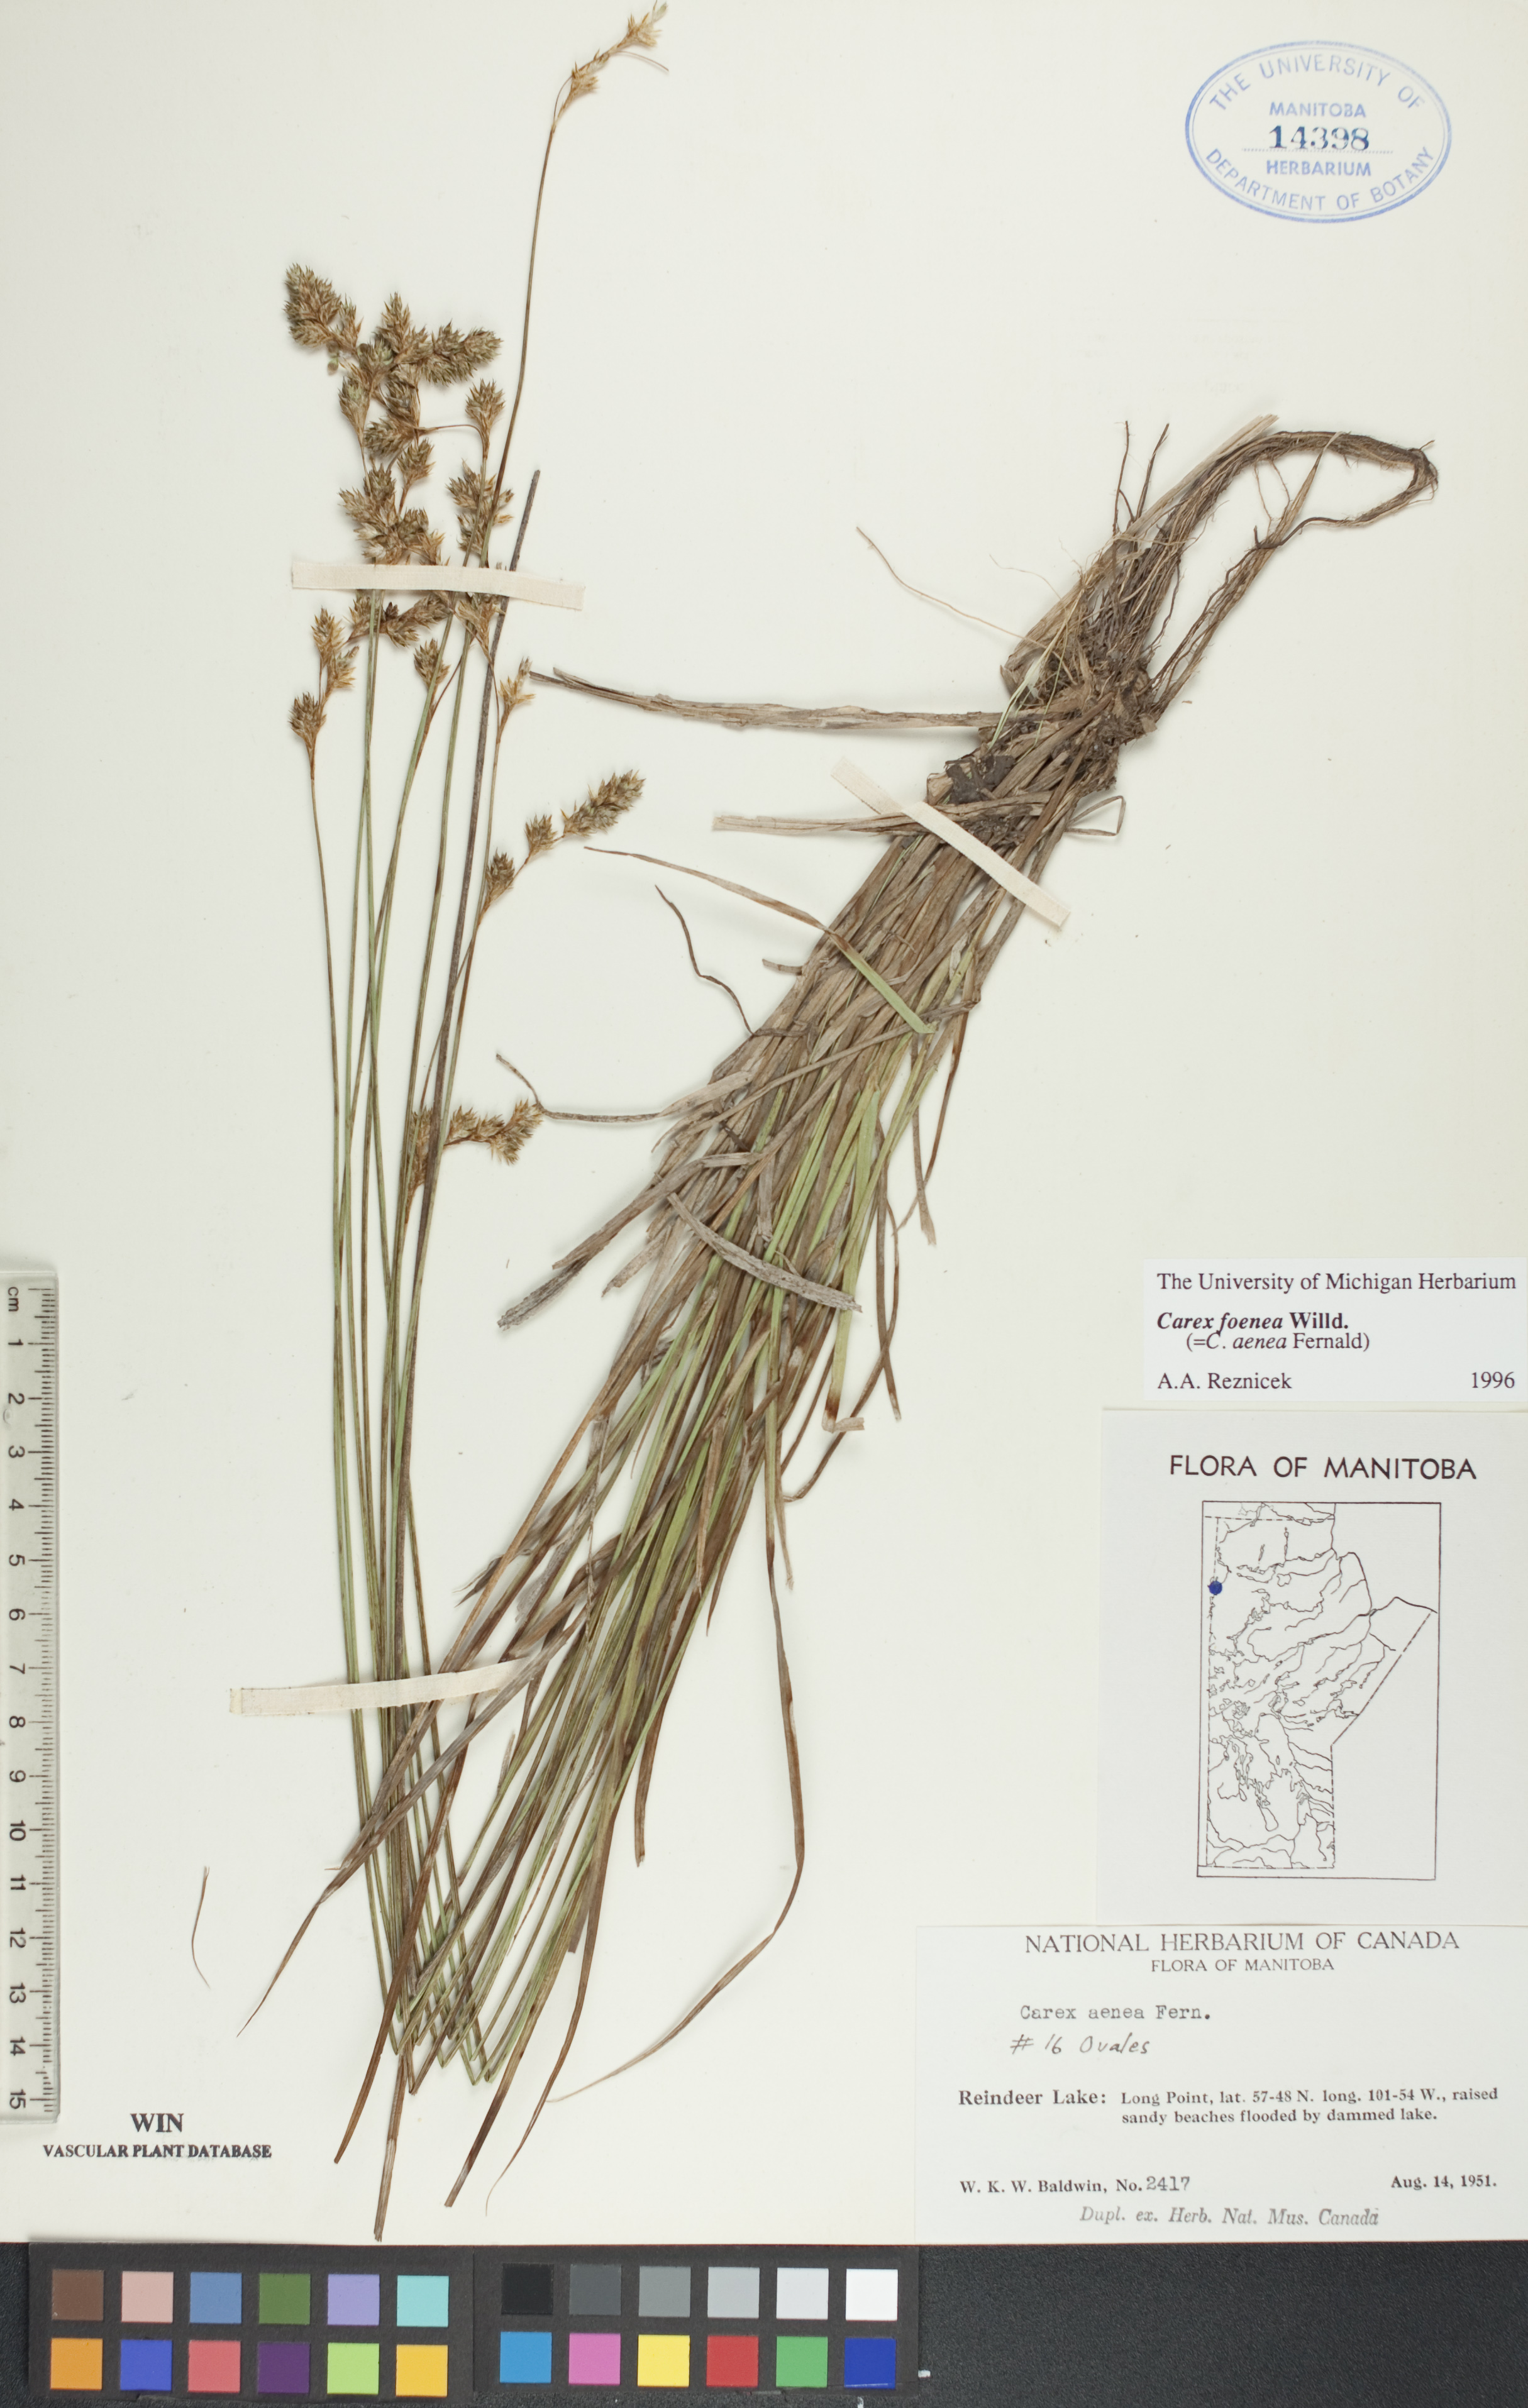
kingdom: Plantae
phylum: Tracheophyta
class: Liliopsida
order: Poales
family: Cyperaceae
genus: Carex
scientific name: Carex foenea
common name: Bronze sedge
